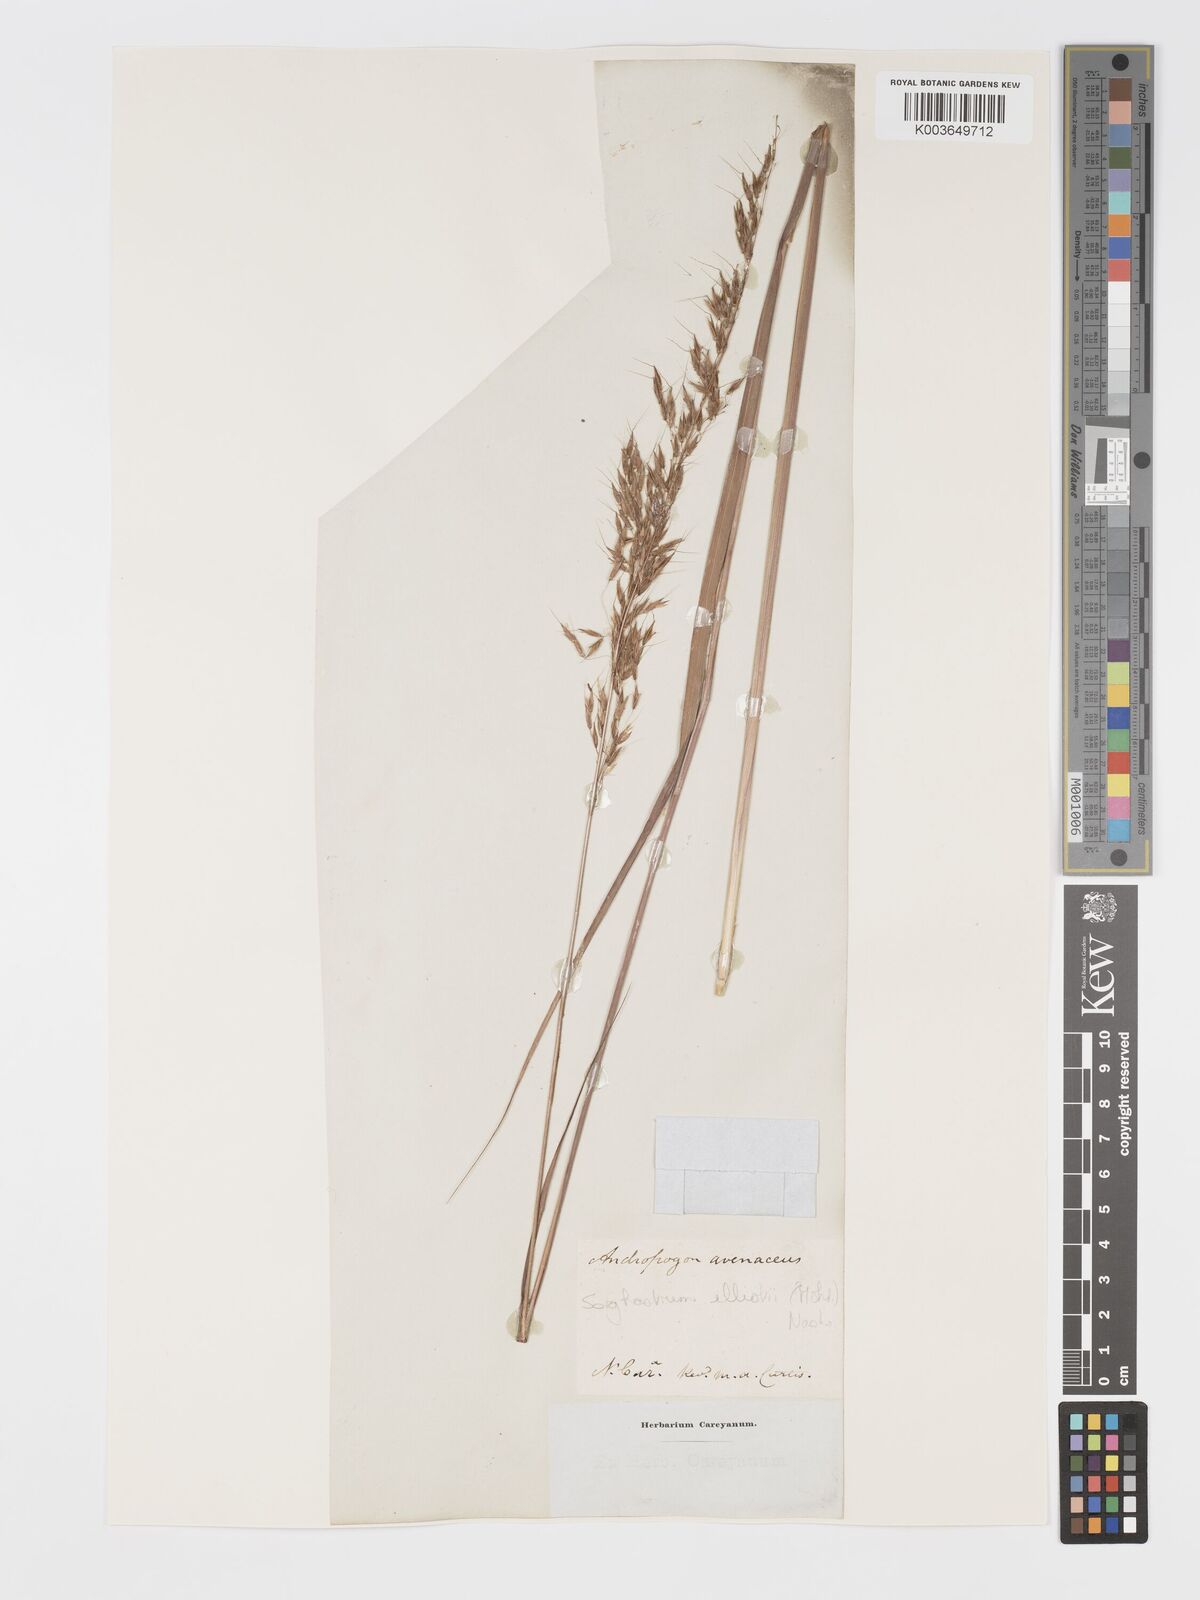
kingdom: Plantae
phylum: Tracheophyta
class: Liliopsida
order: Poales
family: Poaceae
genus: Sorghastrum
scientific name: Sorghastrum nutans
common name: Indian grass
